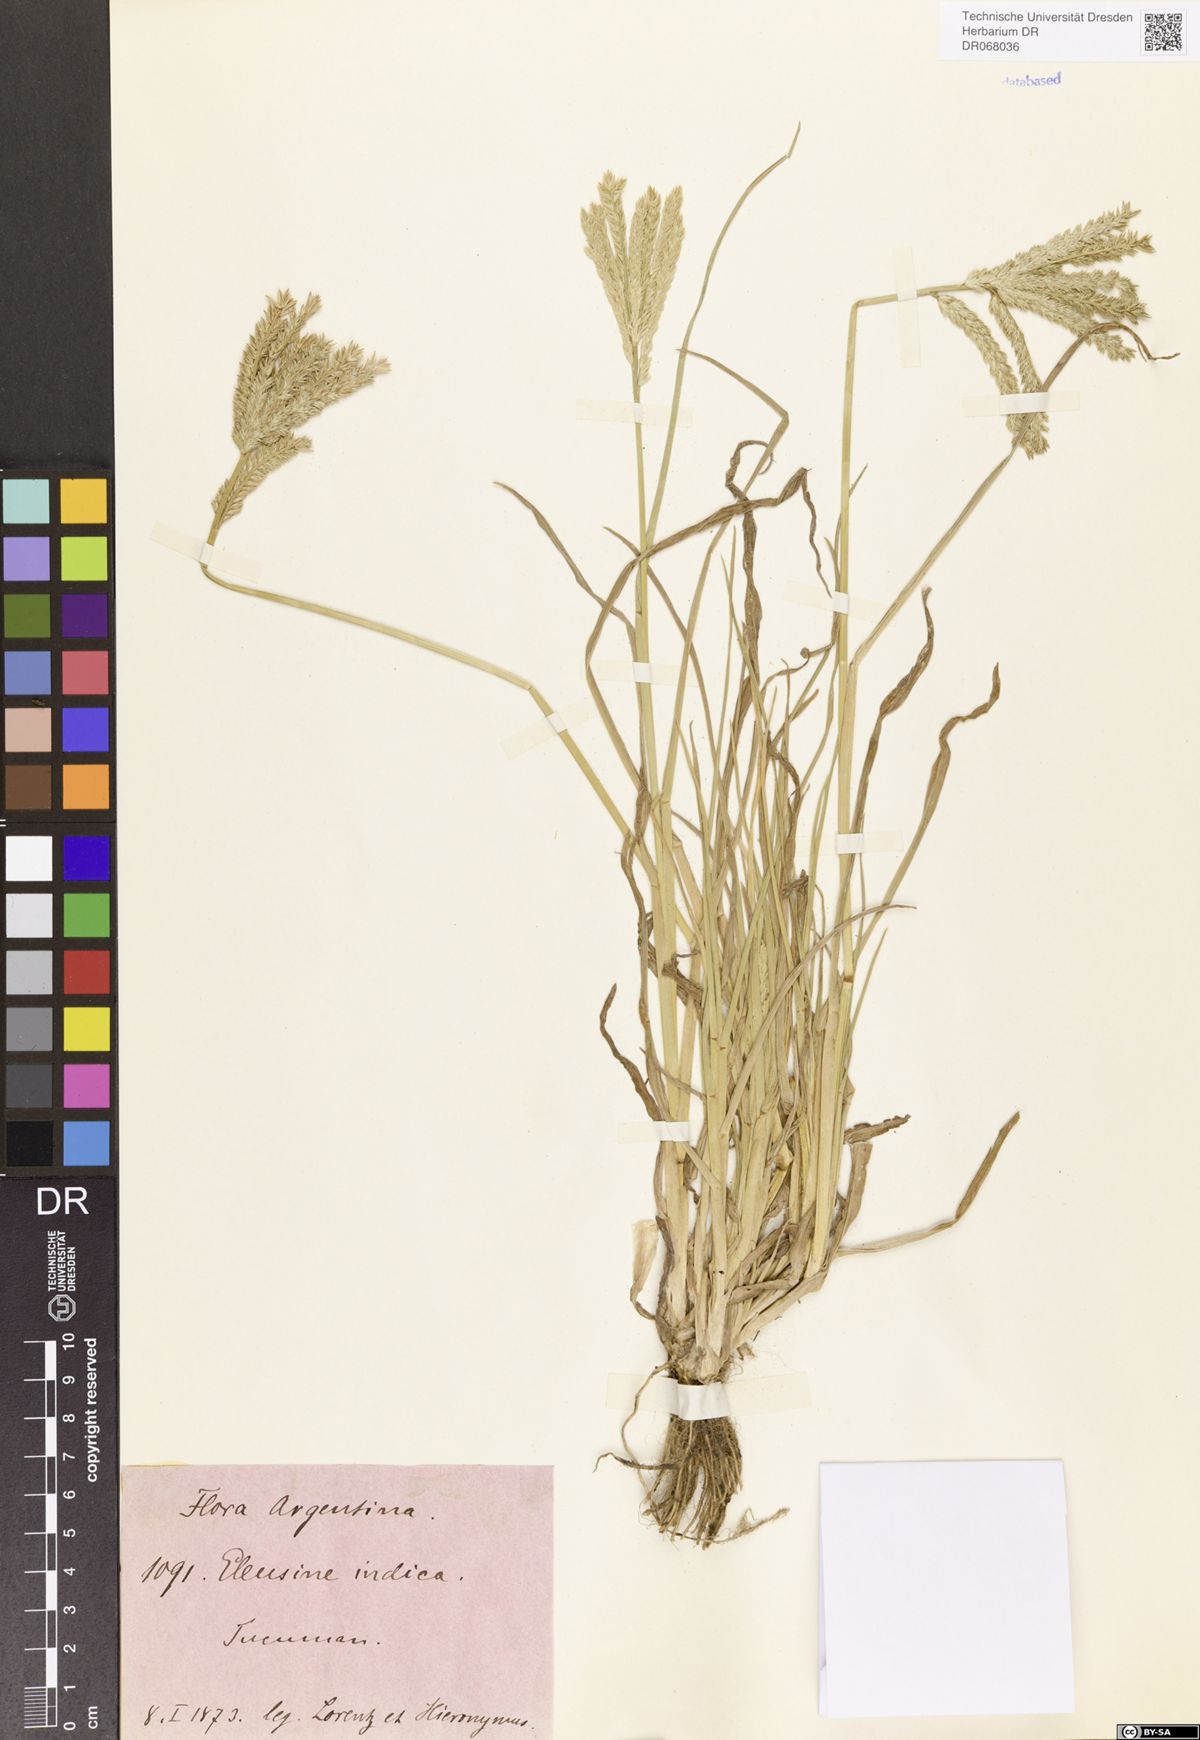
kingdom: Plantae
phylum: Tracheophyta
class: Liliopsida
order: Poales
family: Poaceae
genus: Eleusine
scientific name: Eleusine indica
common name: Yard-grass
